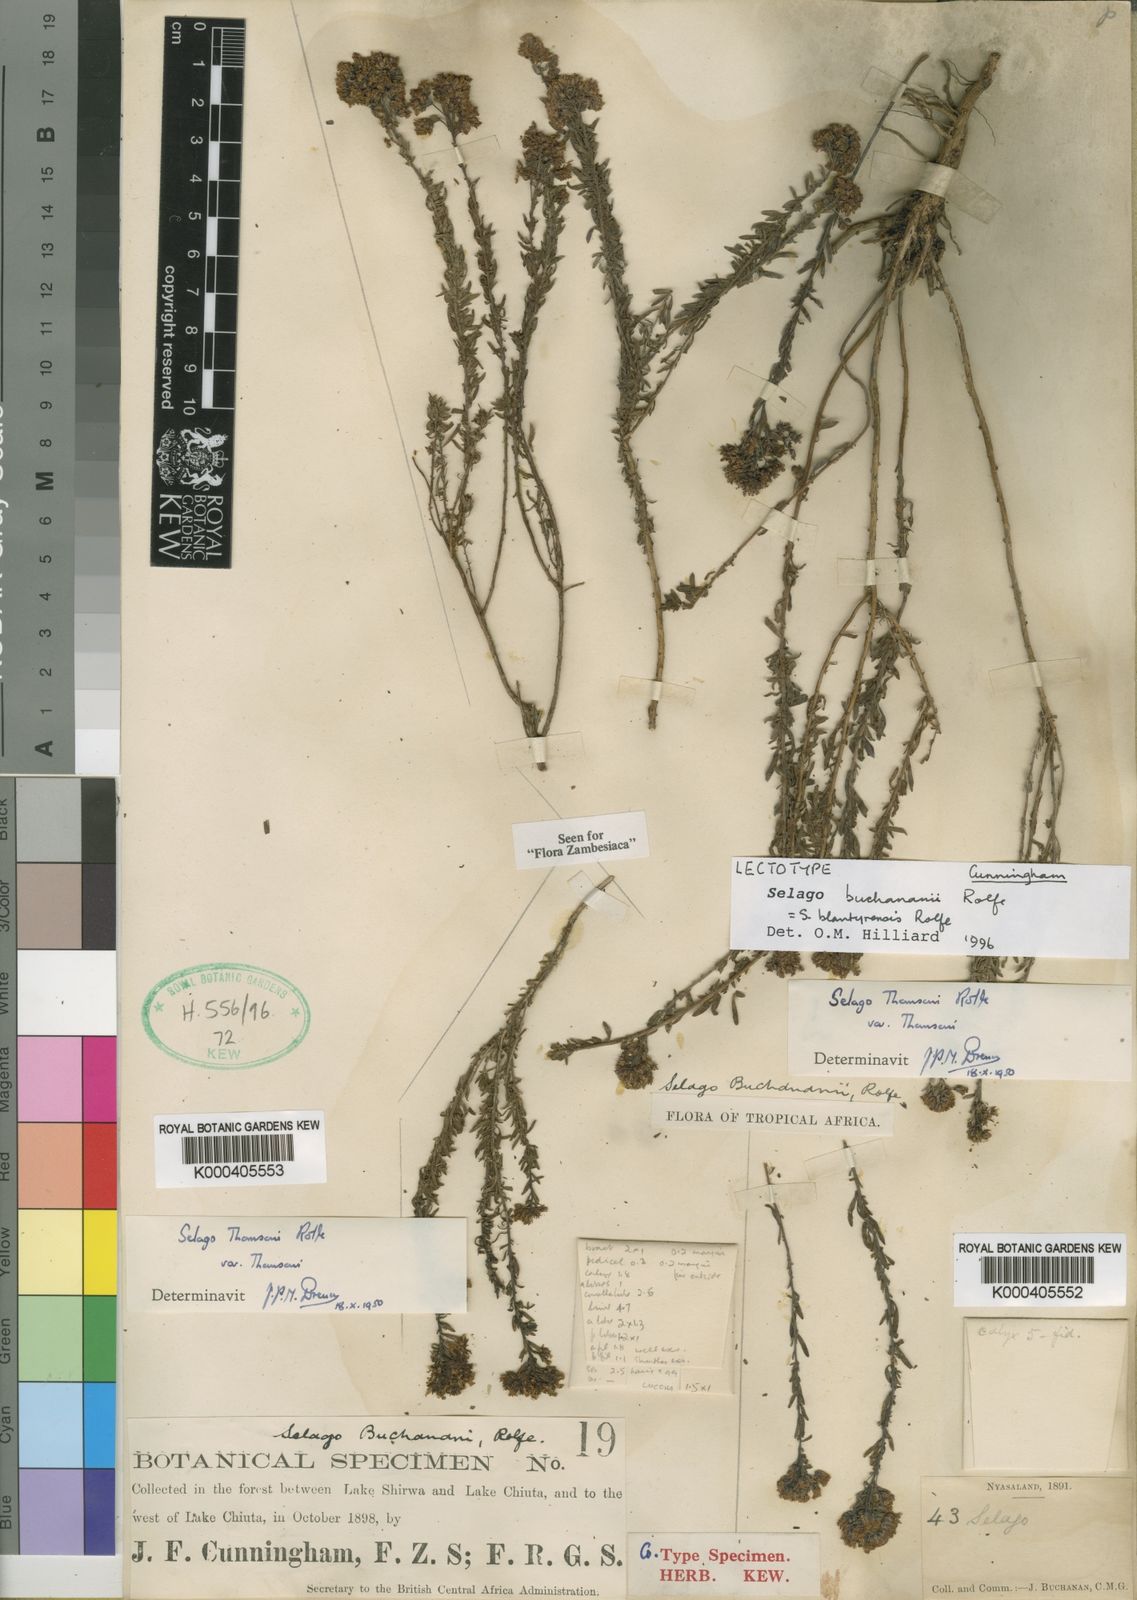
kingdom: Plantae
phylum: Tracheophyta
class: Magnoliopsida
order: Lamiales
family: Scrophulariaceae
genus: Selago
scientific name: Selago blantyrensis
